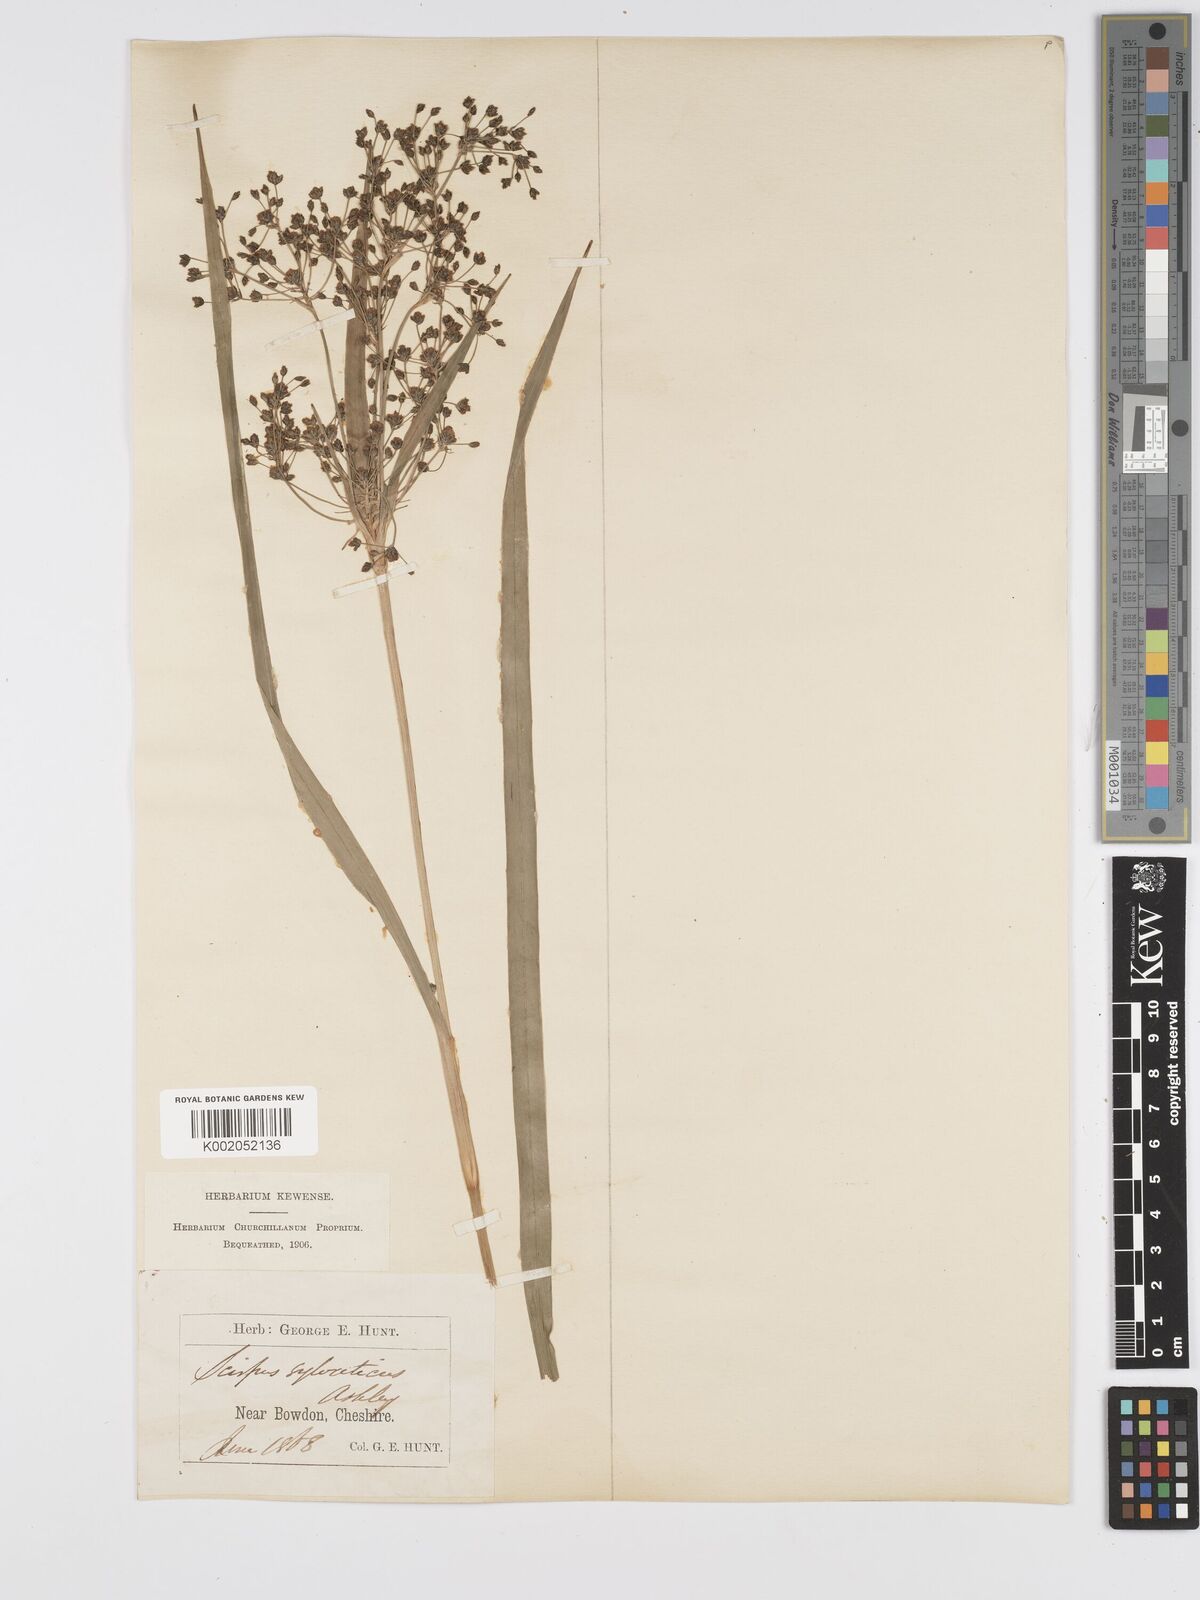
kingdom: Plantae
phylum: Tracheophyta
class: Liliopsida
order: Poales
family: Cyperaceae
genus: Scirpus
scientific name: Scirpus sylvaticus
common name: Wood club-rush
